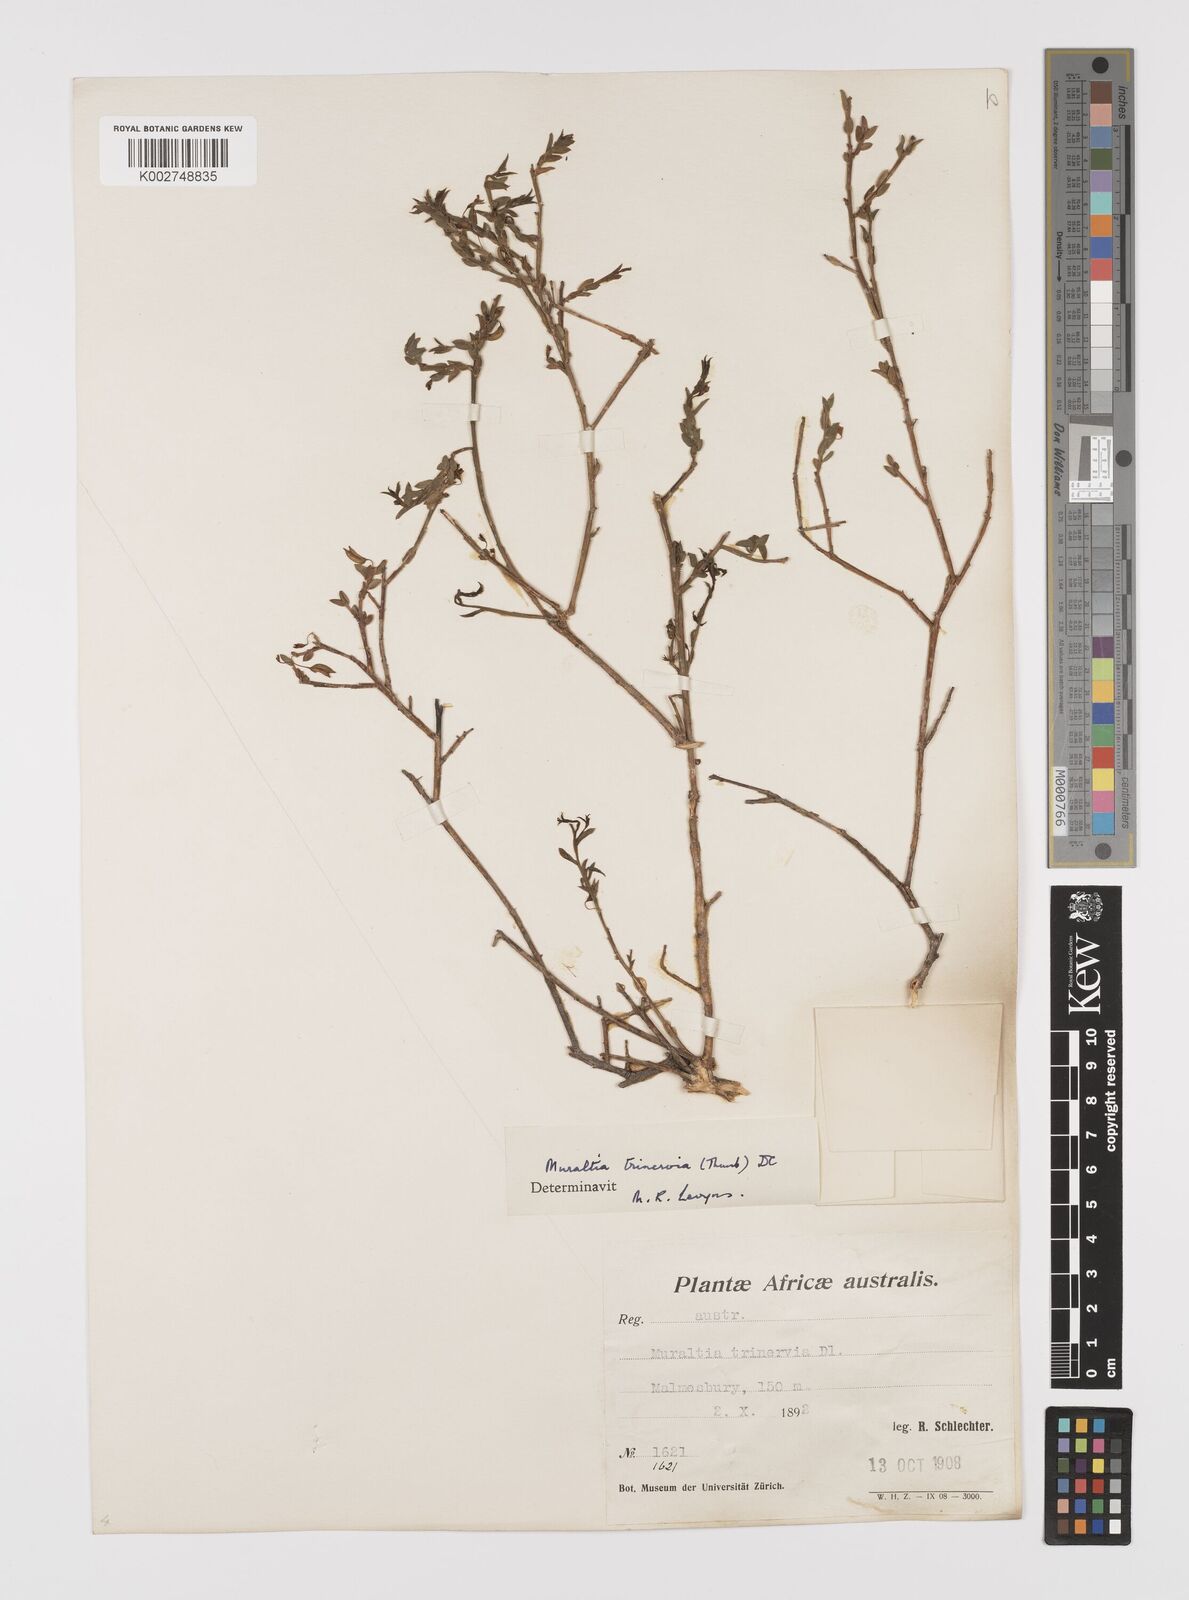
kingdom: Plantae
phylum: Tracheophyta
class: Magnoliopsida
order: Fabales
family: Polygalaceae
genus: Muraltia
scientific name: Muraltia trinervia
